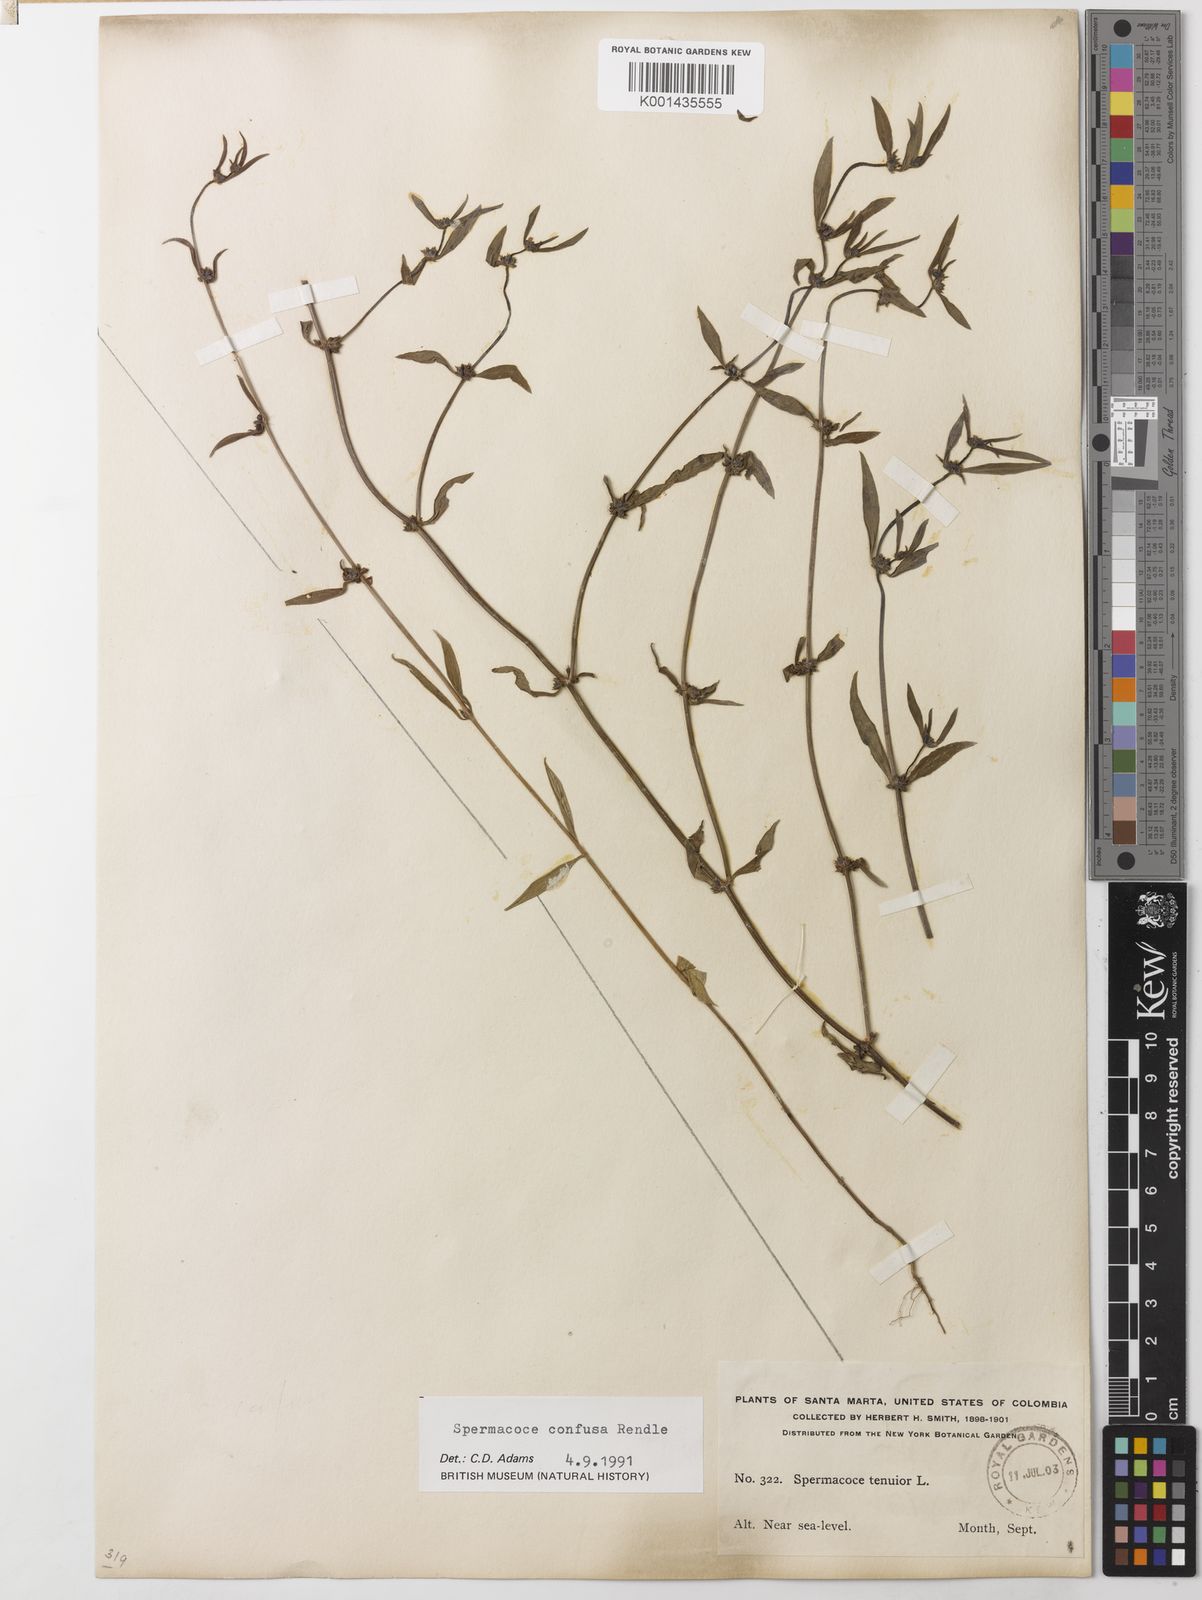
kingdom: Plantae
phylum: Tracheophyta
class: Magnoliopsida
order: Gentianales
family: Rubiaceae
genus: Spermacoce
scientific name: Spermacoce confusa
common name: Iron-grass
